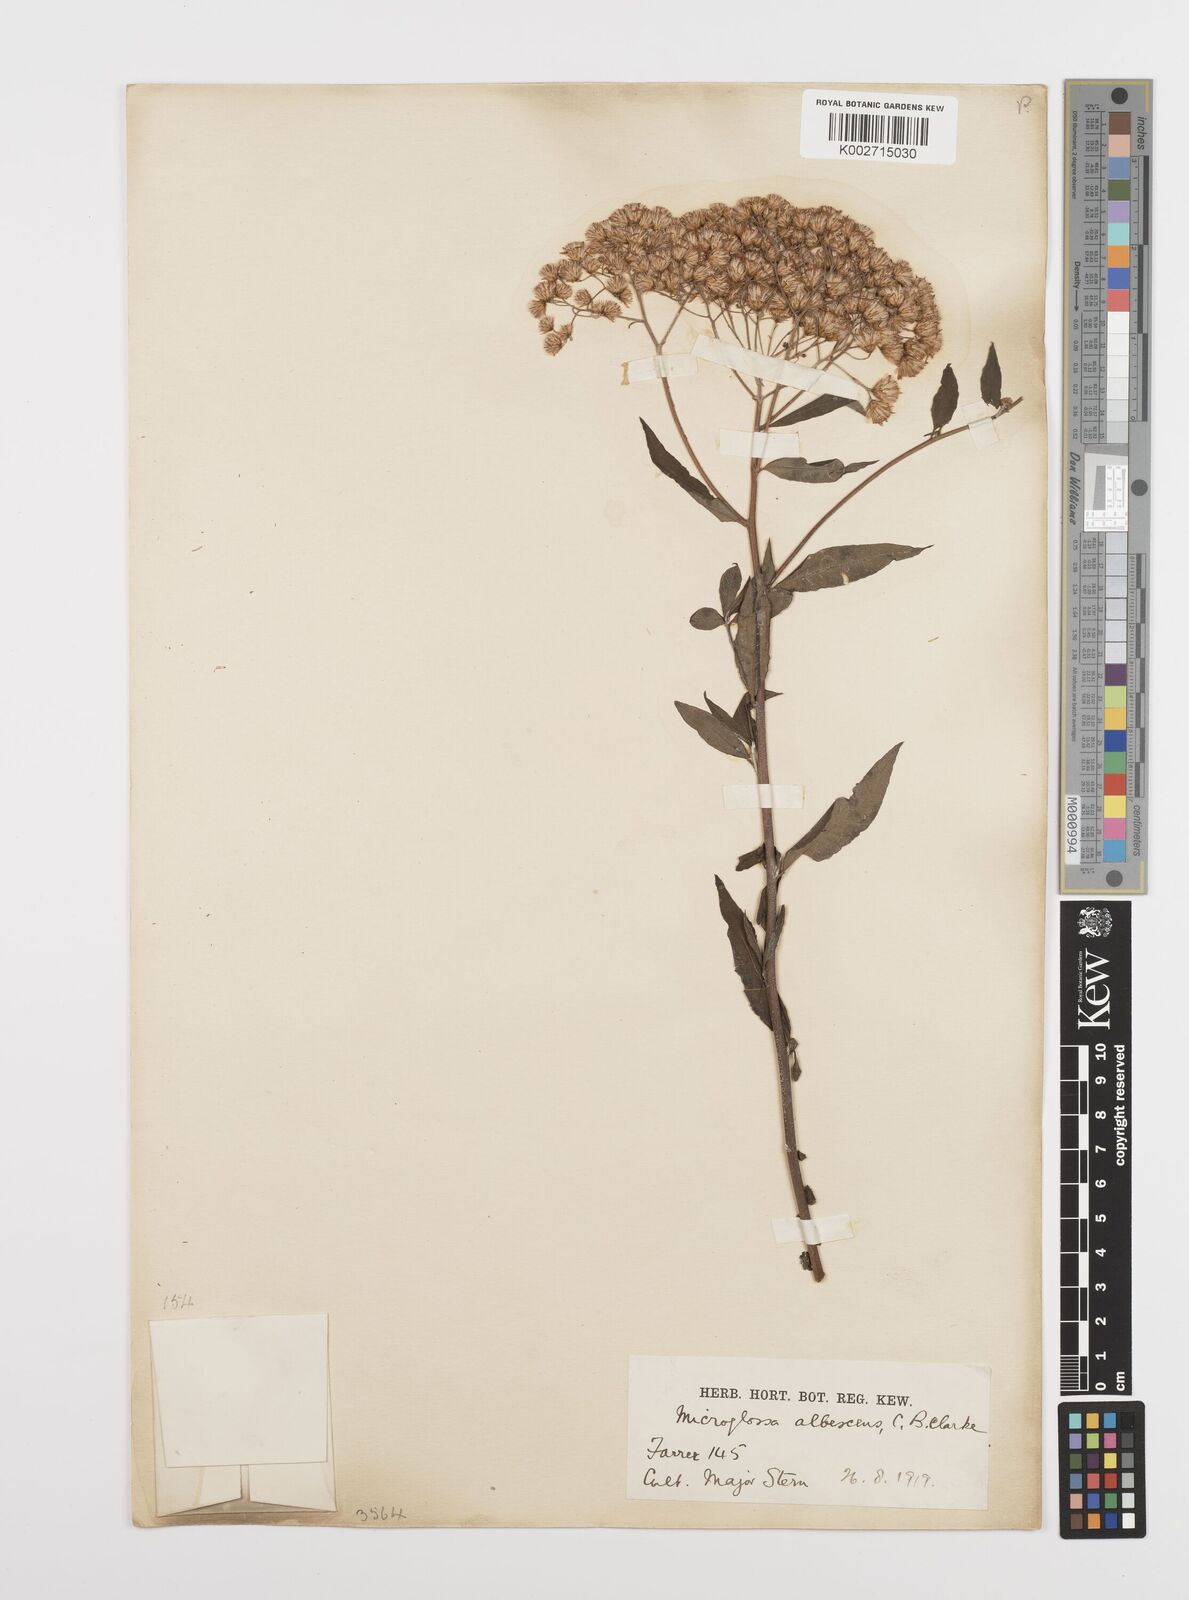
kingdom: Plantae
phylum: Tracheophyta
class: Magnoliopsida
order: Asterales
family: Asteraceae
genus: Sinosidus
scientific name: Sinosidus albescens
